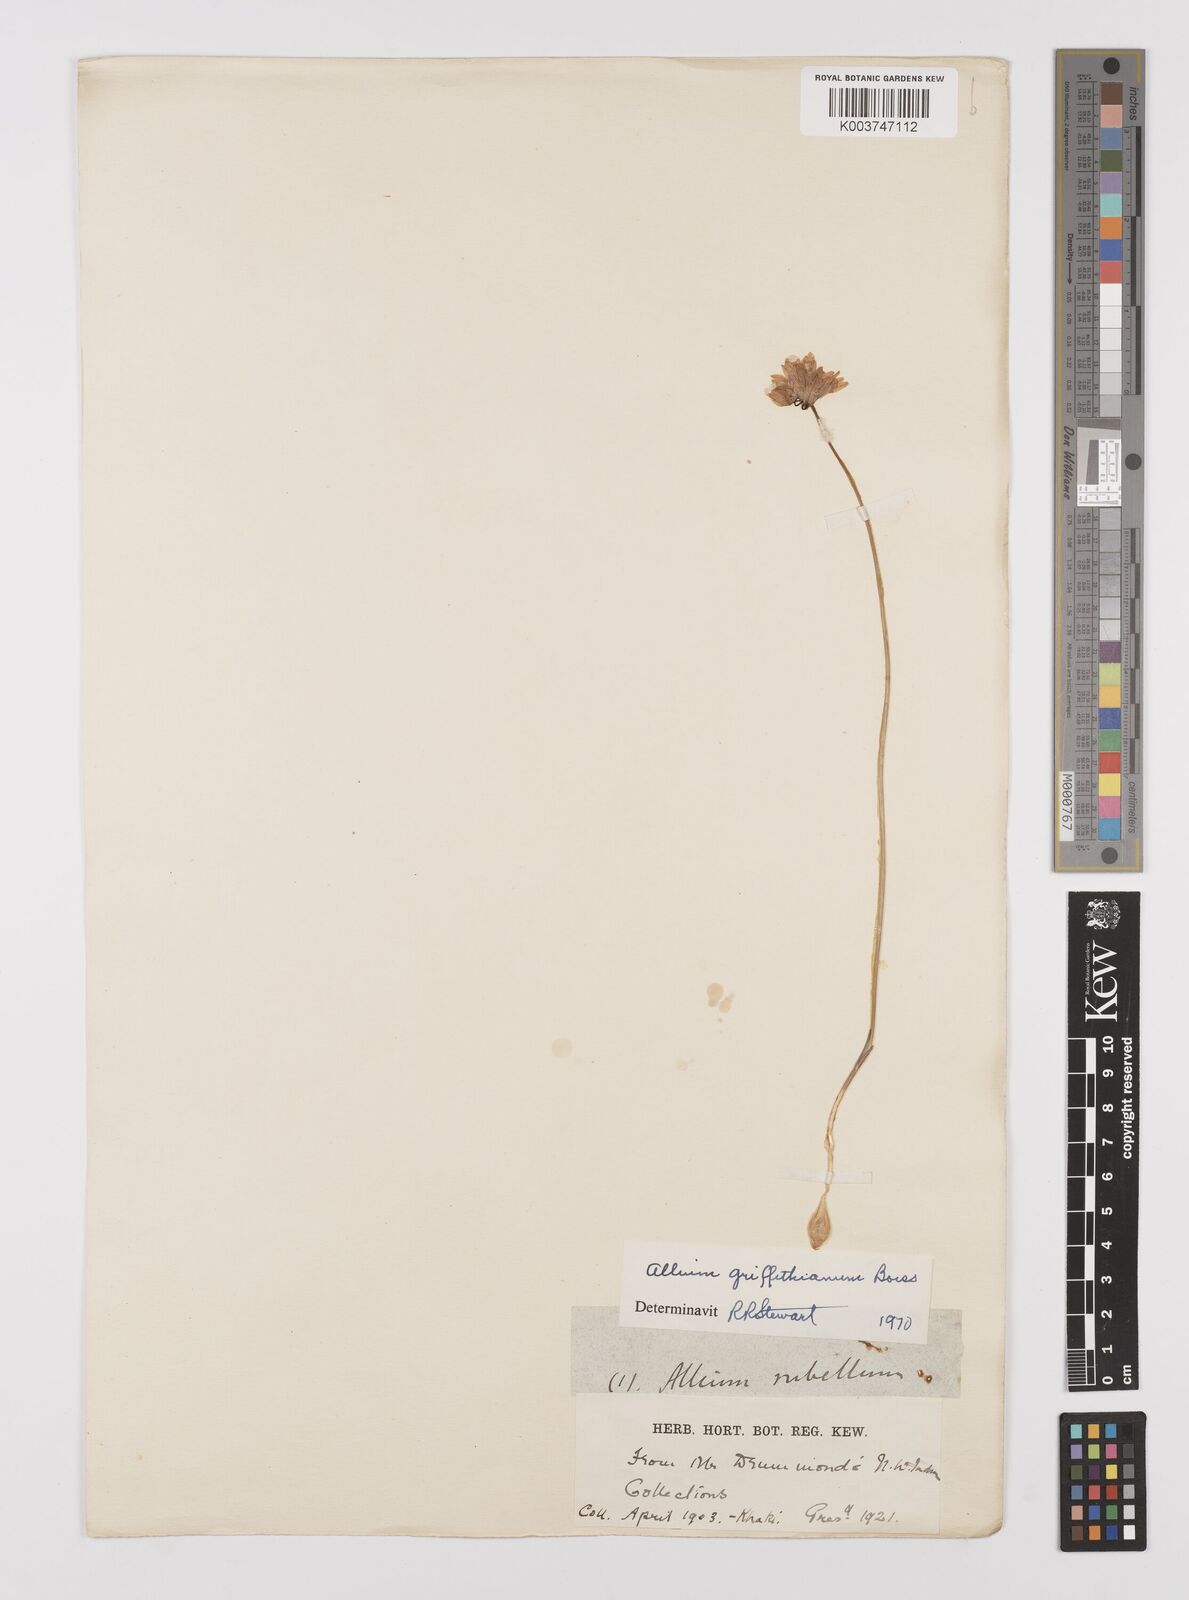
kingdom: Plantae
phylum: Tracheophyta
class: Liliopsida
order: Asparagales
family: Amaryllidaceae
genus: Allium
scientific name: Allium griffithianum
